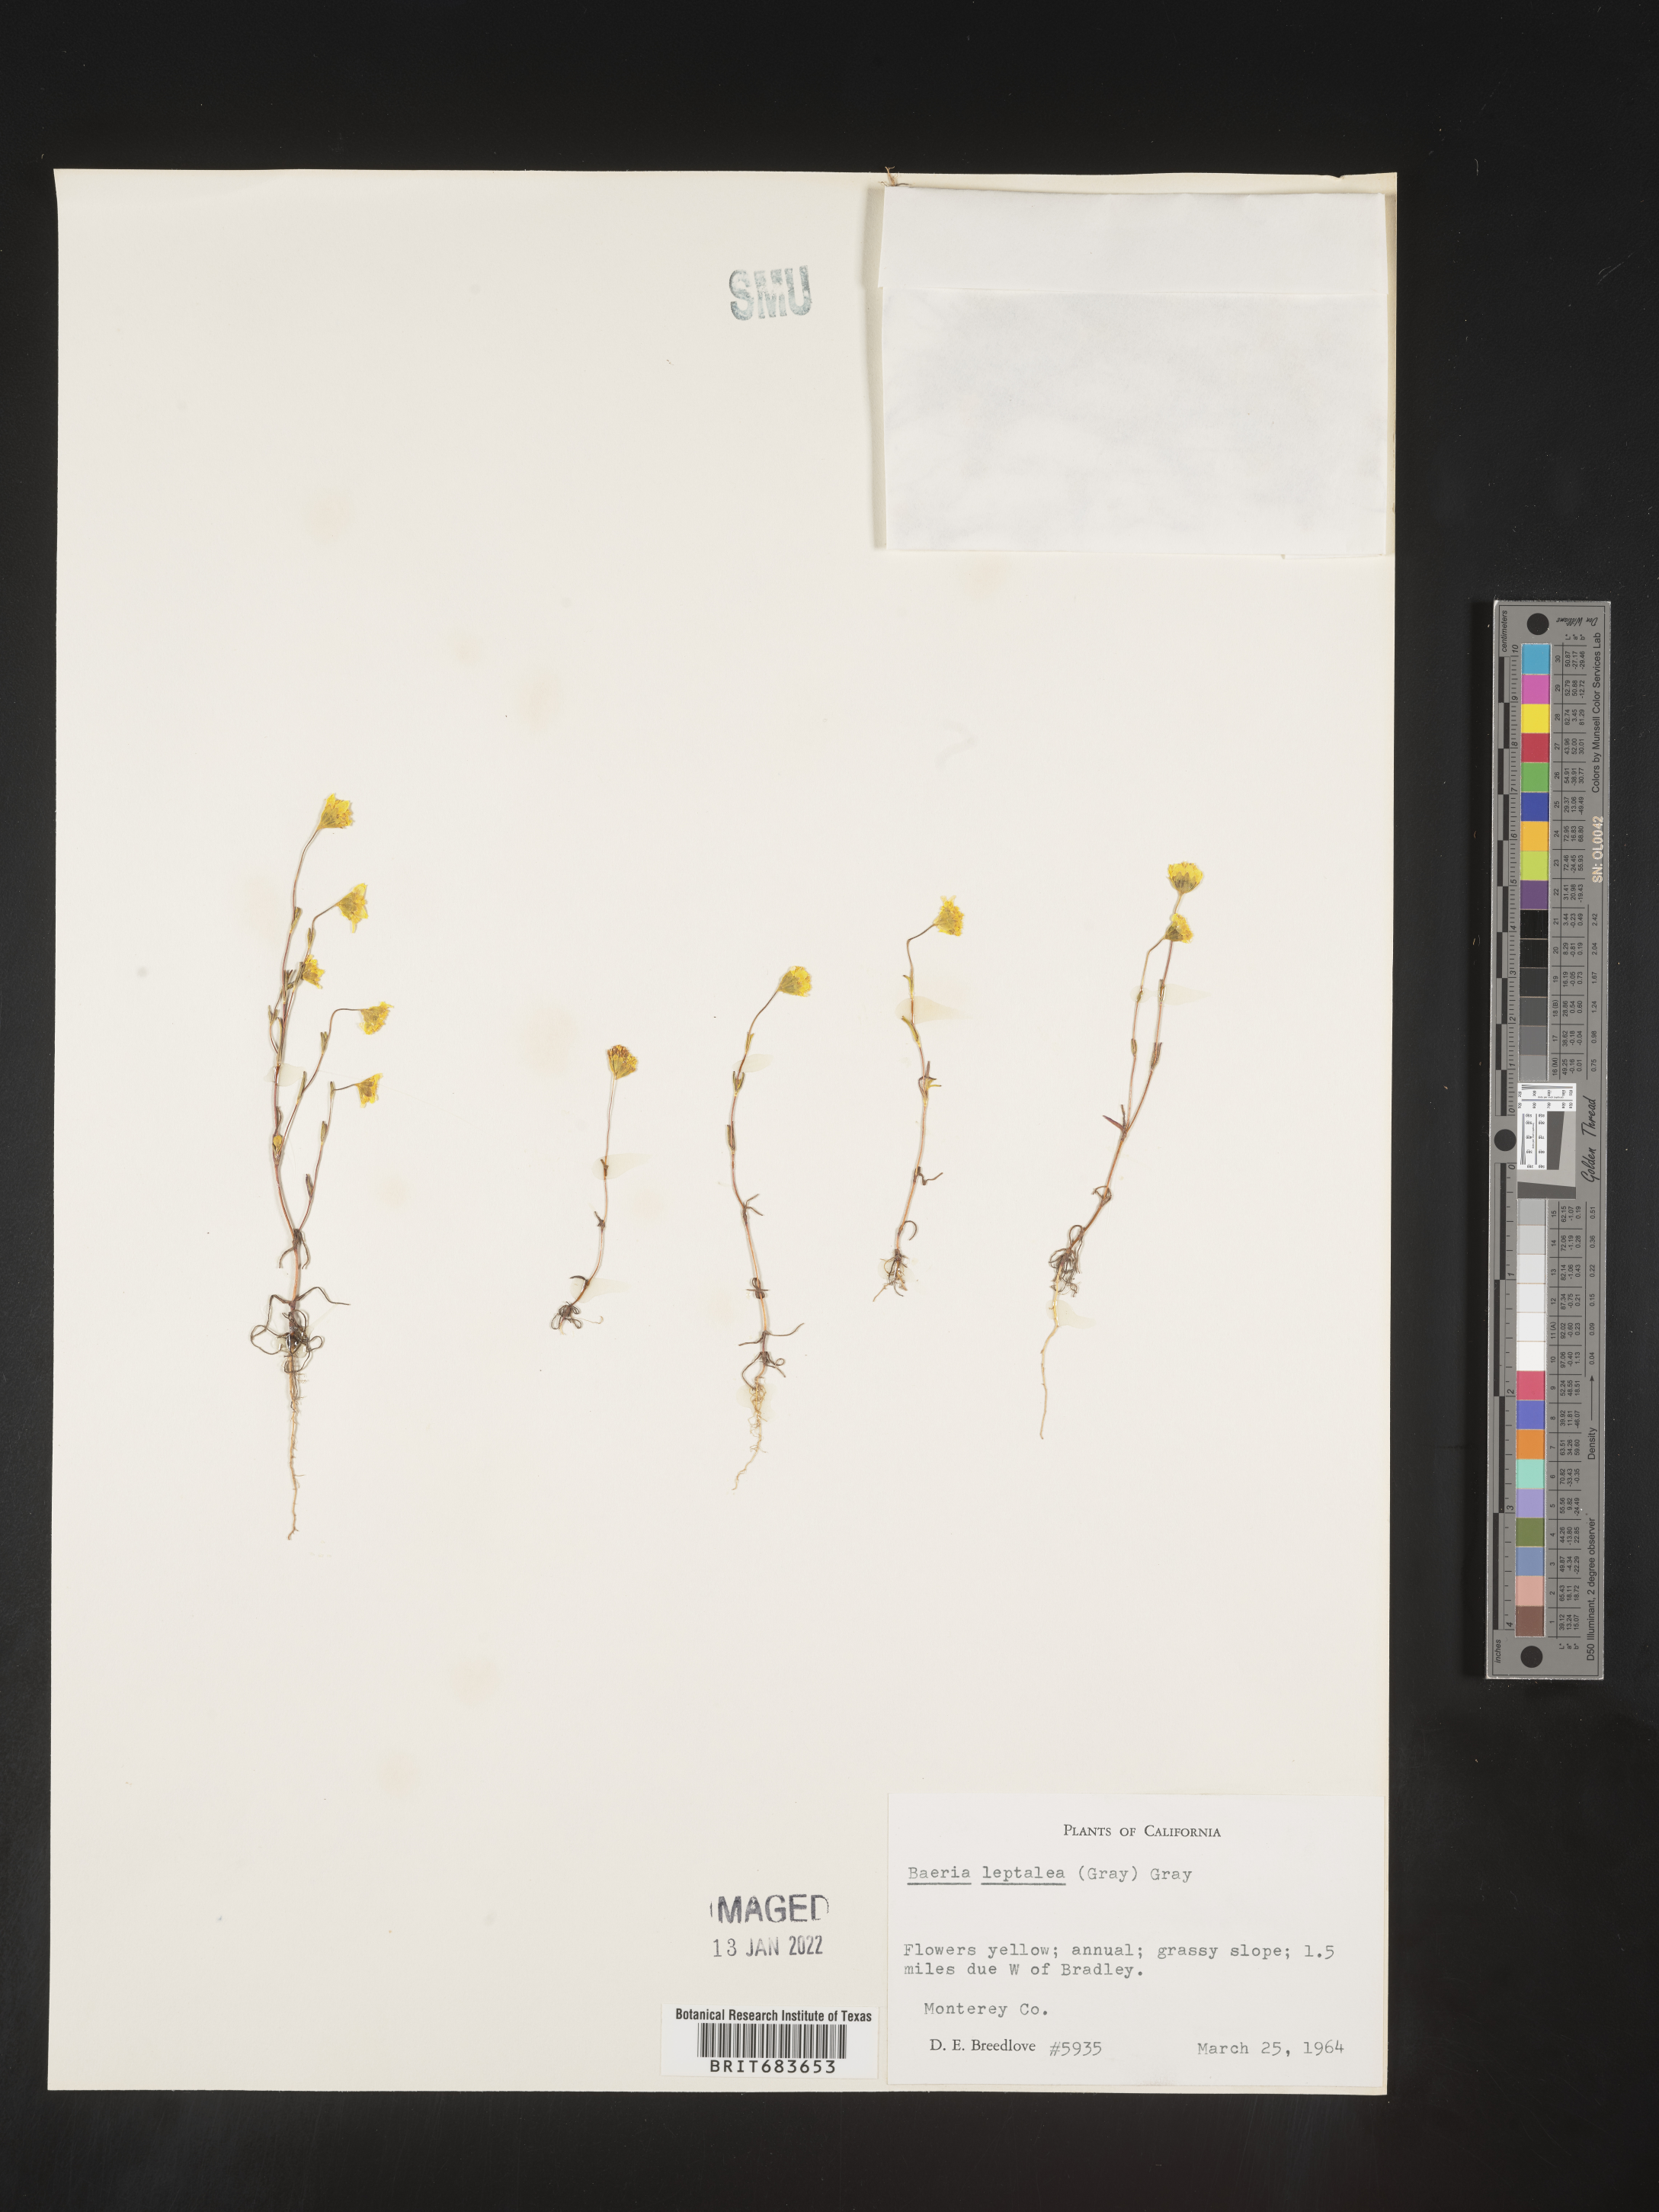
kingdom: Plantae
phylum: Tracheophyta
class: Magnoliopsida
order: Asterales
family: Asteraceae
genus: Lasthenia
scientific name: Lasthenia
